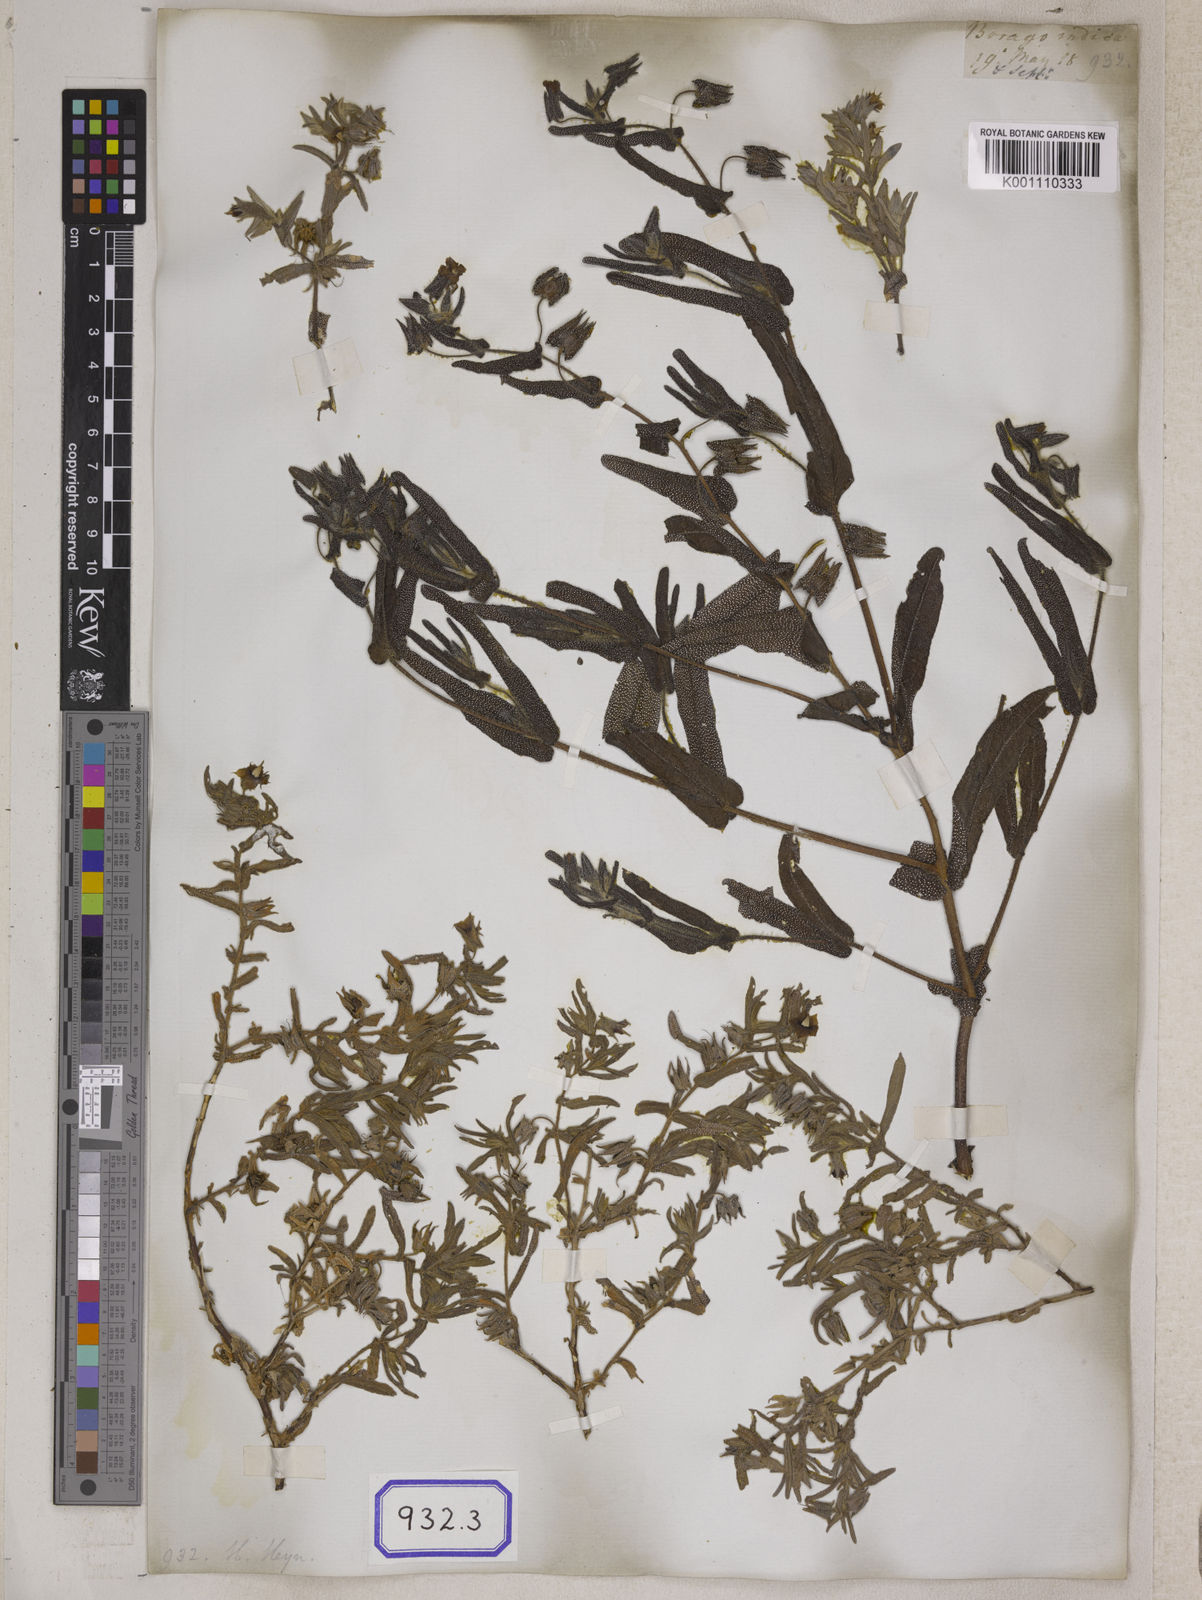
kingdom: Plantae
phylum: Tracheophyta
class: Magnoliopsida
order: Boraginales
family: Boraginaceae
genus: Trichodesma
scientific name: Trichodesma
